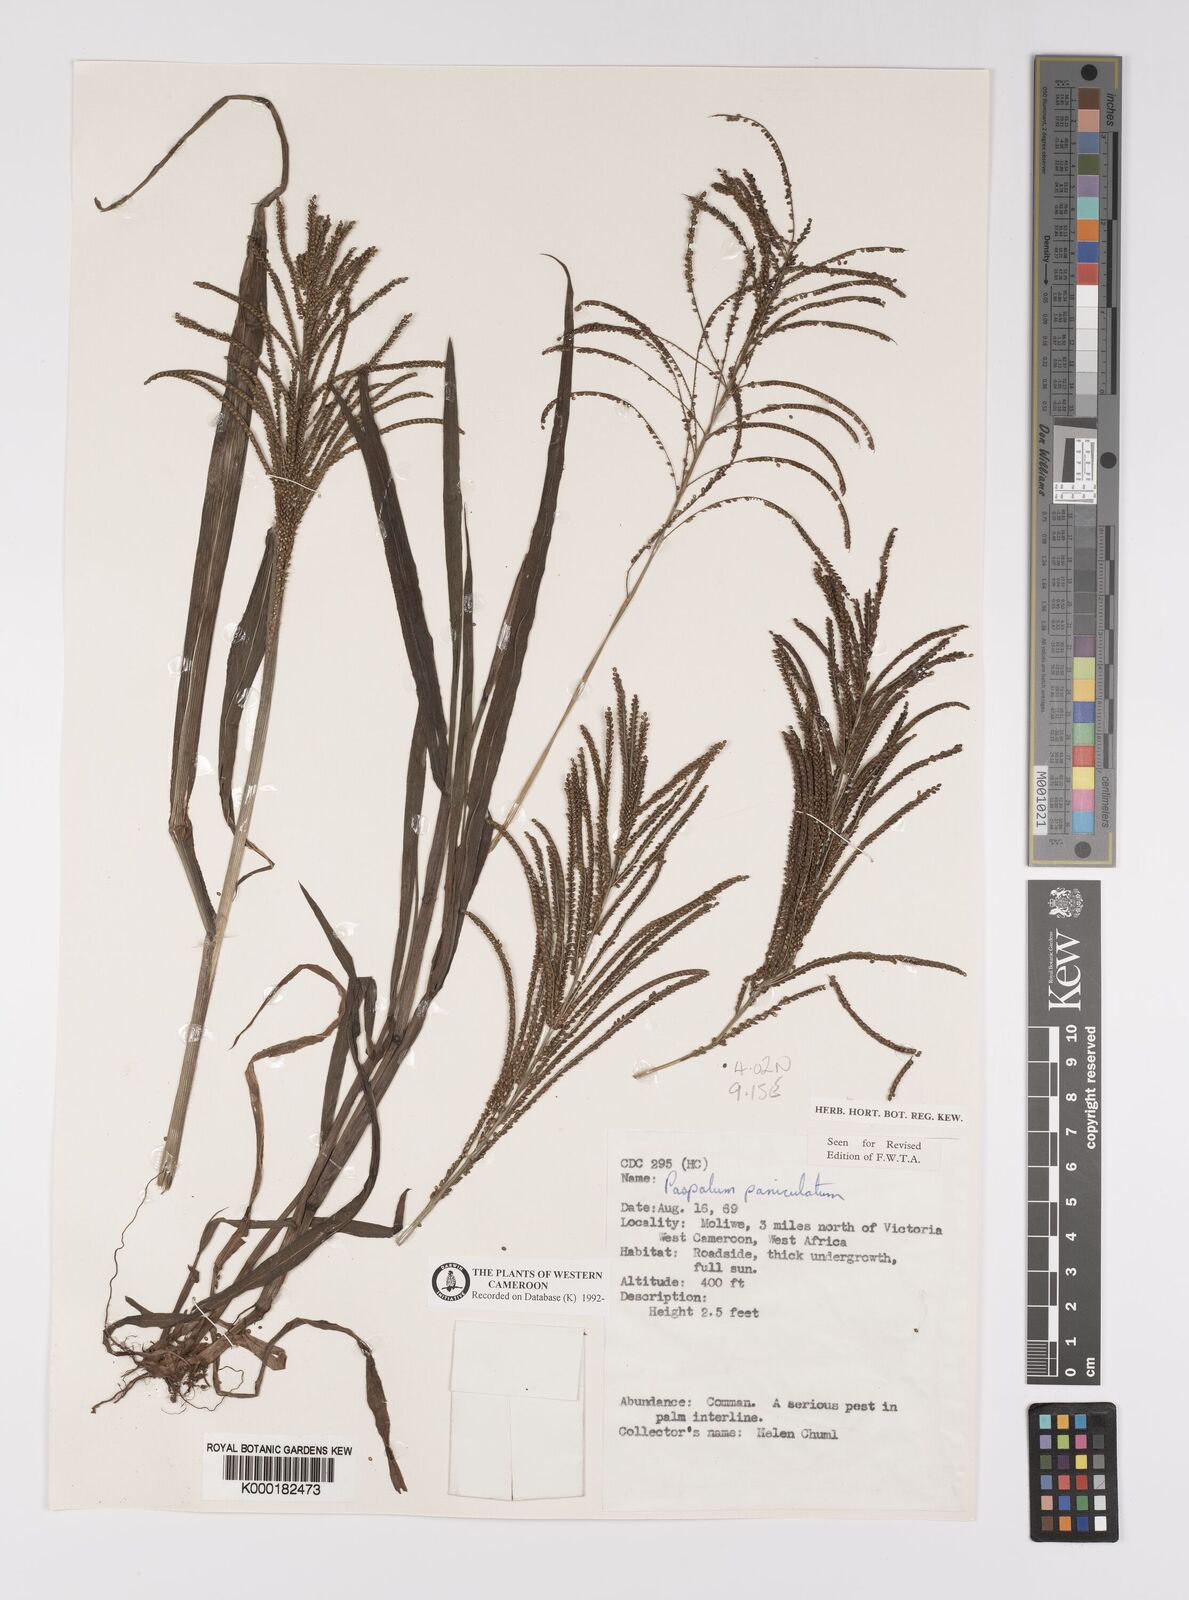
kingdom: Plantae
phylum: Tracheophyta
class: Liliopsida
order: Poales
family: Poaceae
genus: Paspalum
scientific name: Paspalum paniculatum
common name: Arrocillo
